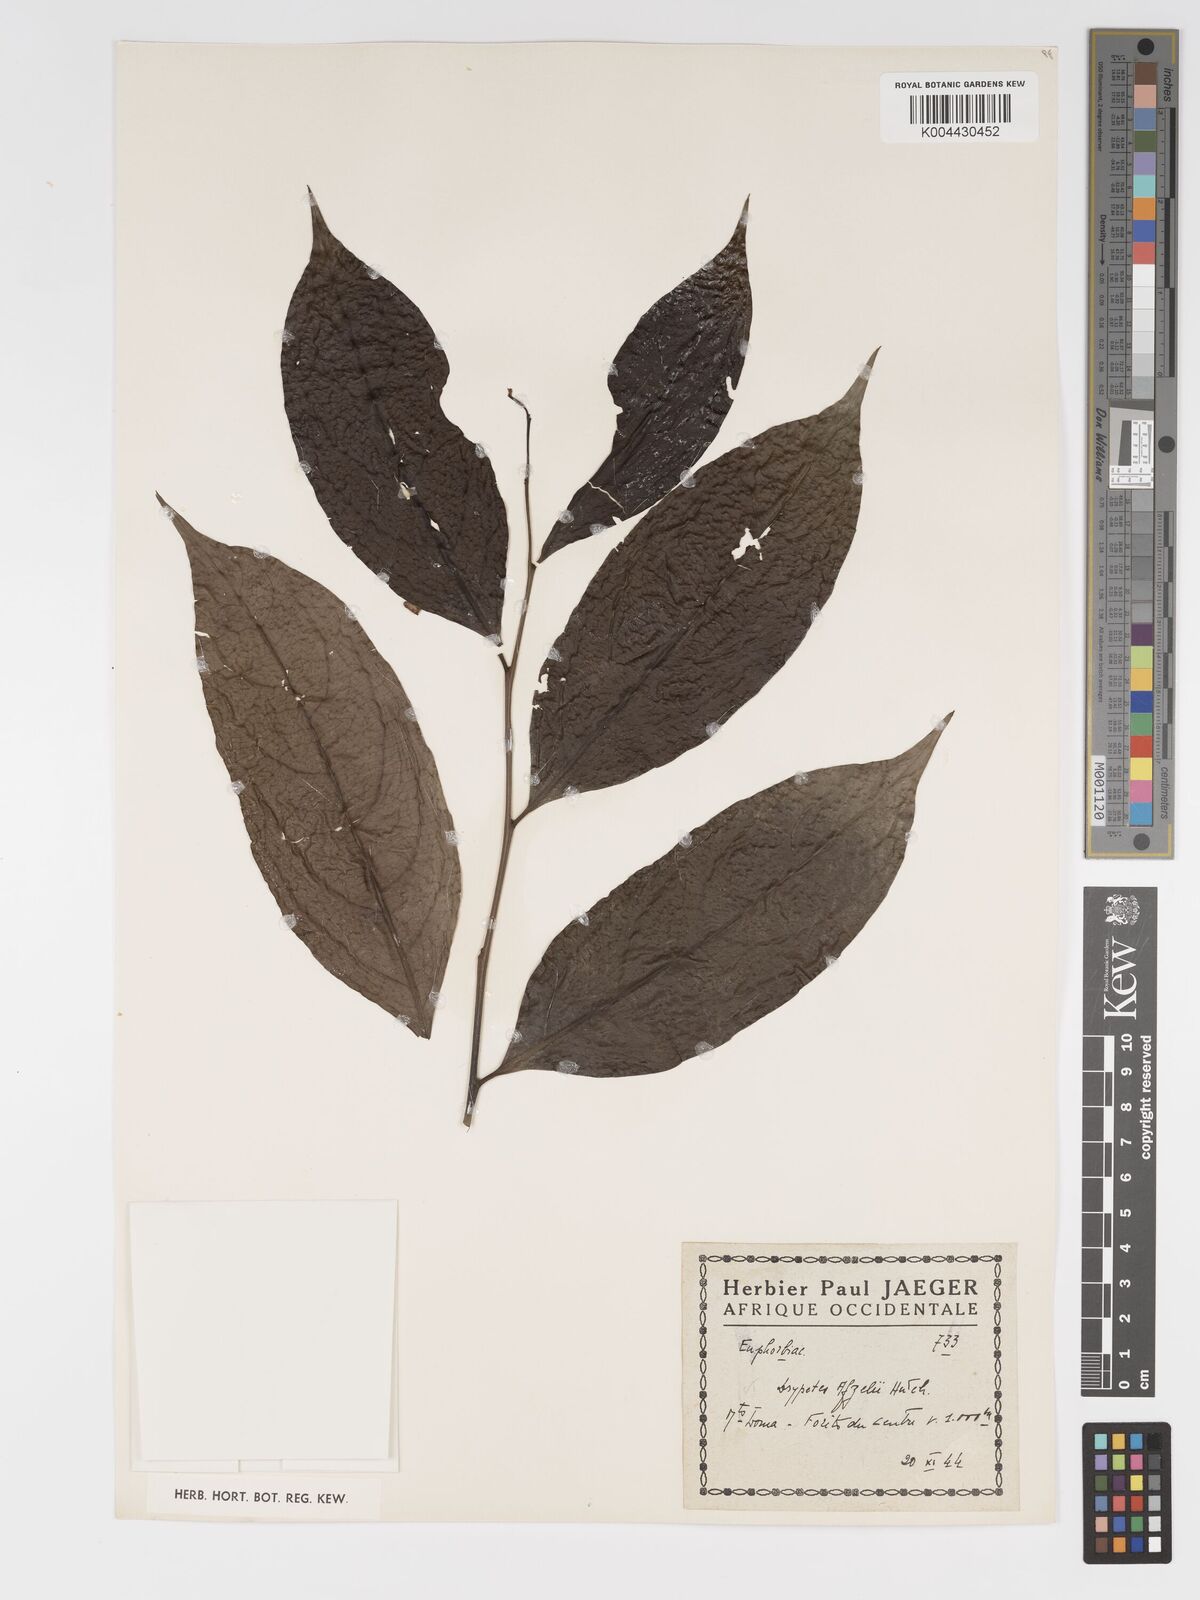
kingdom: Plantae
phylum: Tracheophyta
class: Magnoliopsida
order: Malpighiales
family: Putranjivaceae
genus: Drypetes
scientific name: Drypetes afzelii
